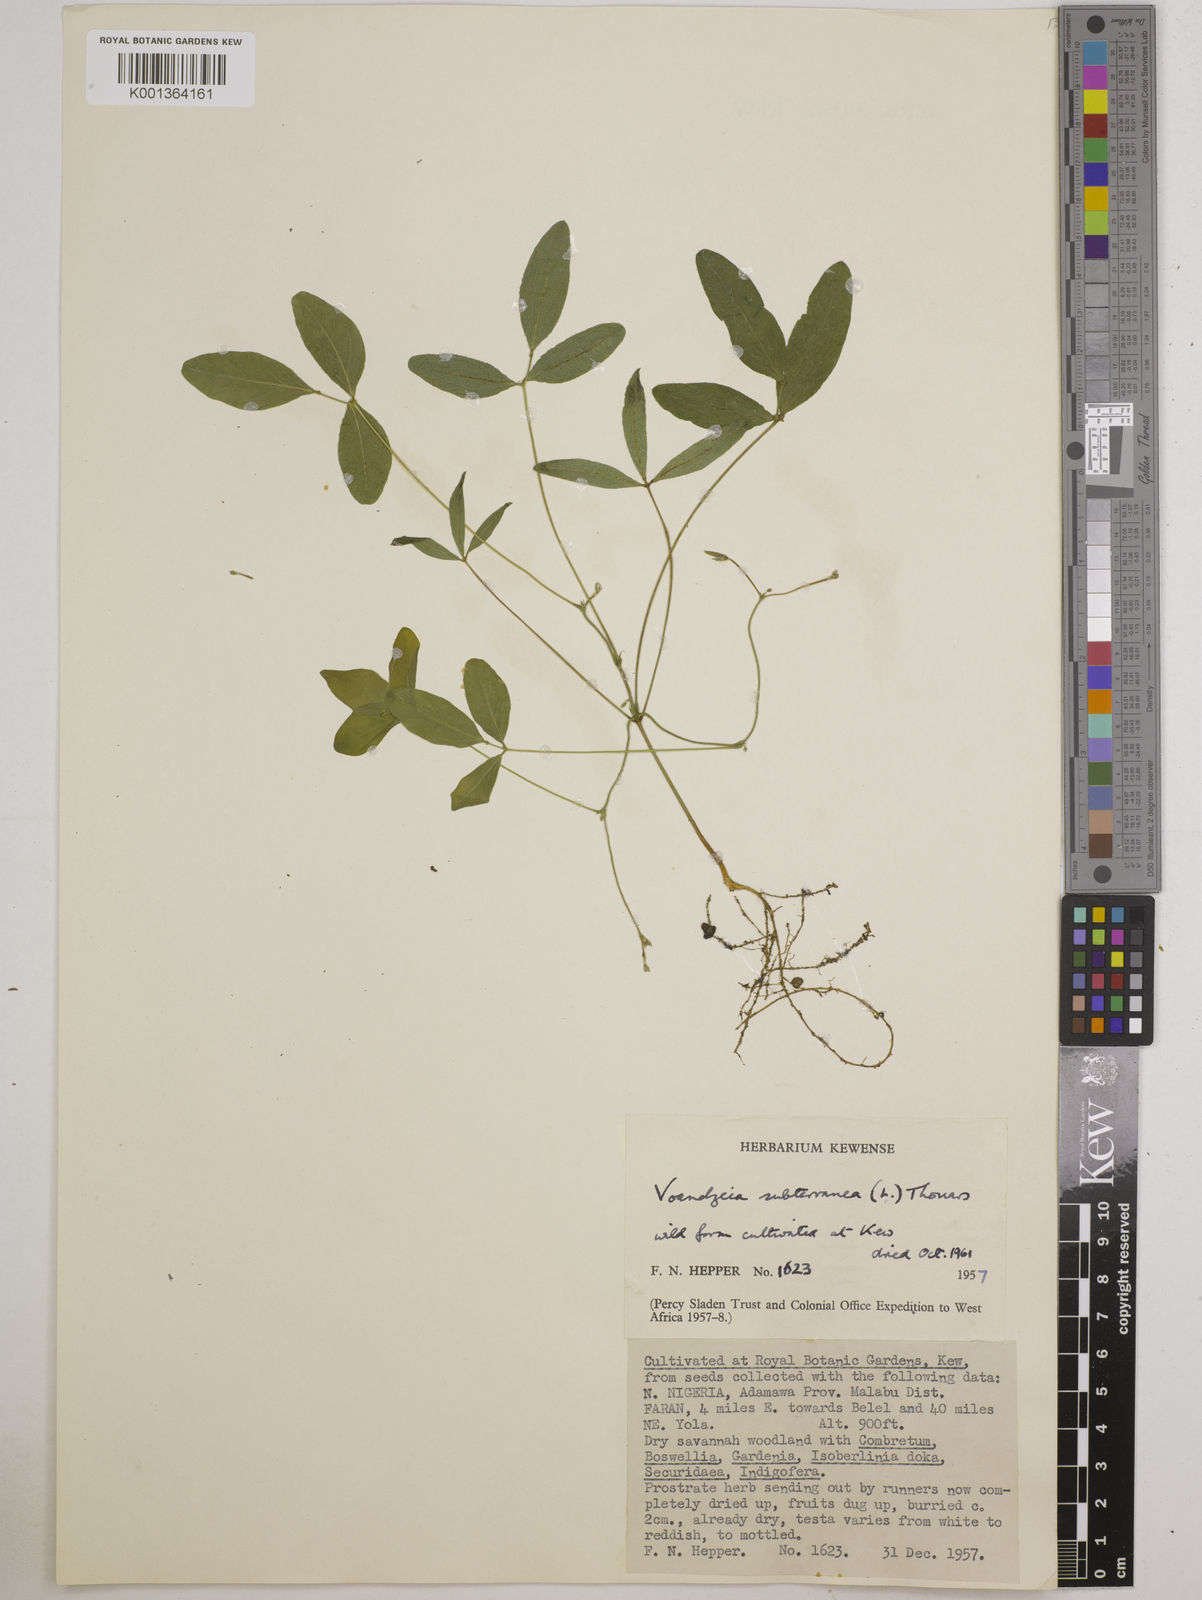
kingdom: Plantae
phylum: Tracheophyta
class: Magnoliopsida
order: Fabales
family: Fabaceae
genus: Vigna
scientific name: Vigna subterranea
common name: Bambara groundnut
